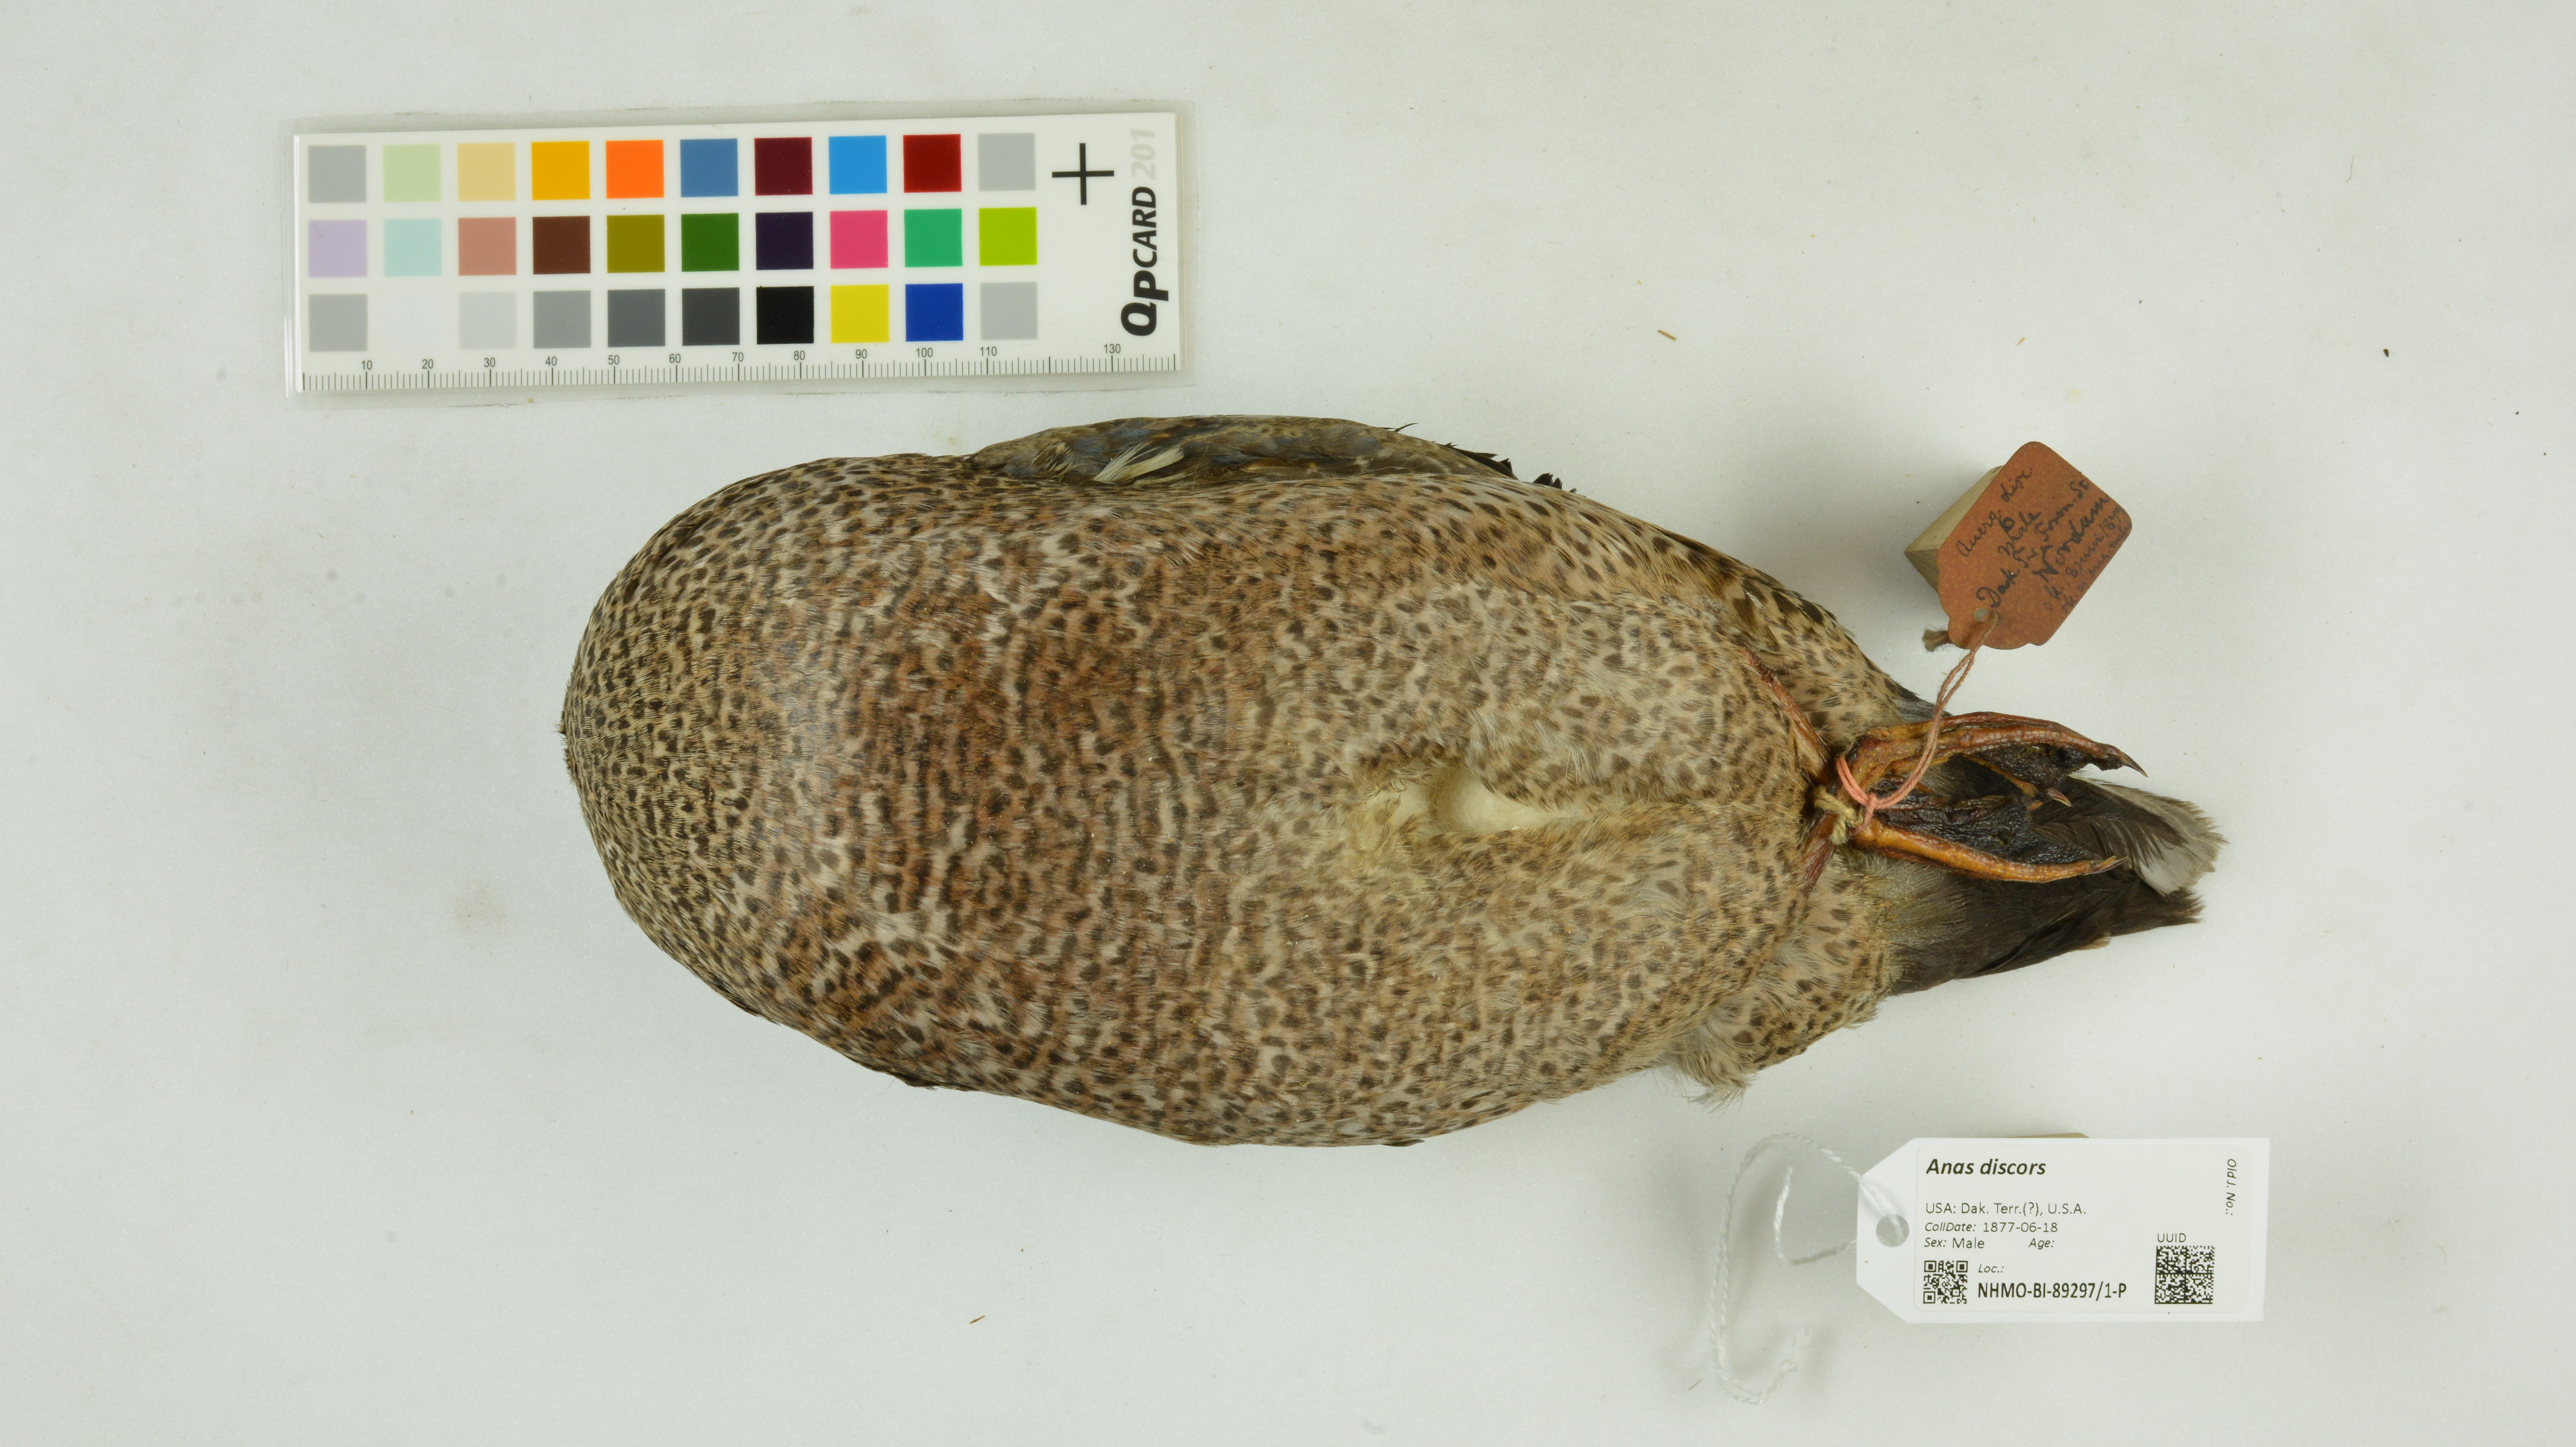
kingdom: Animalia
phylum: Chordata
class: Aves
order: Anseriformes
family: Anatidae
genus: Spatula
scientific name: Spatula discors
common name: Blue-winged teal
